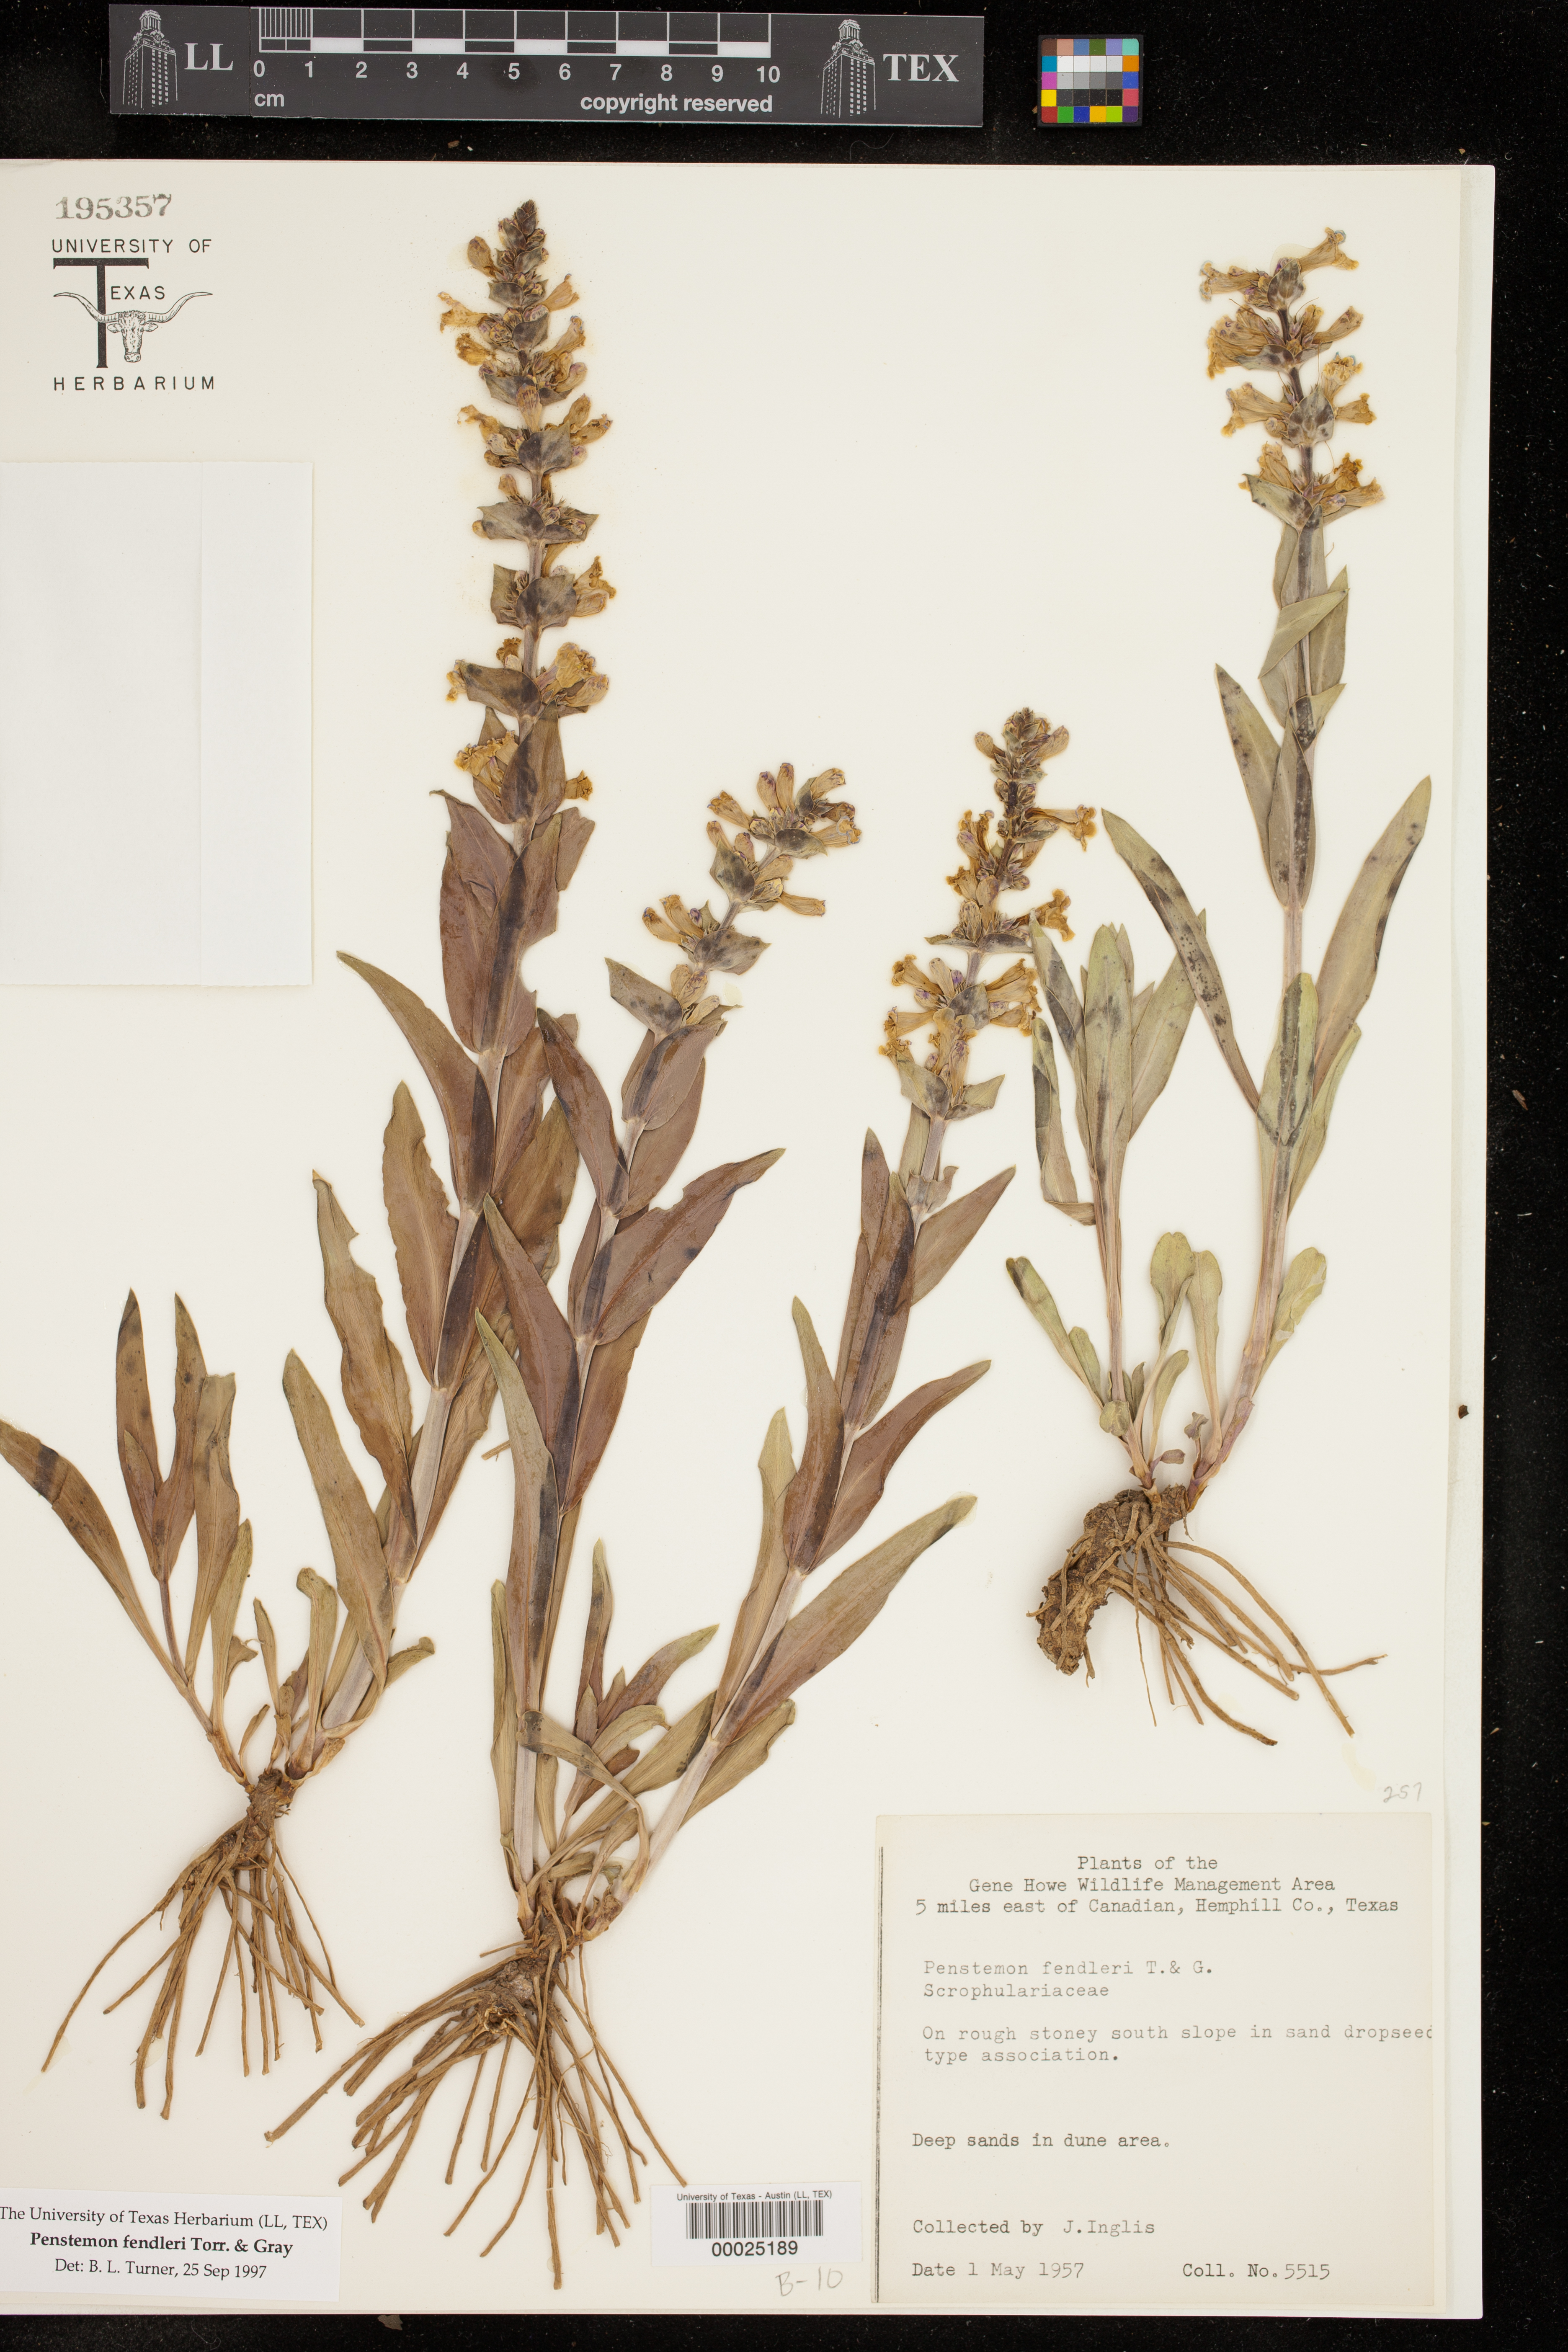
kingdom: Plantae
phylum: Tracheophyta
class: Magnoliopsida
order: Lamiales
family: Plantaginaceae
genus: Penstemon
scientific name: Penstemon fendleri
